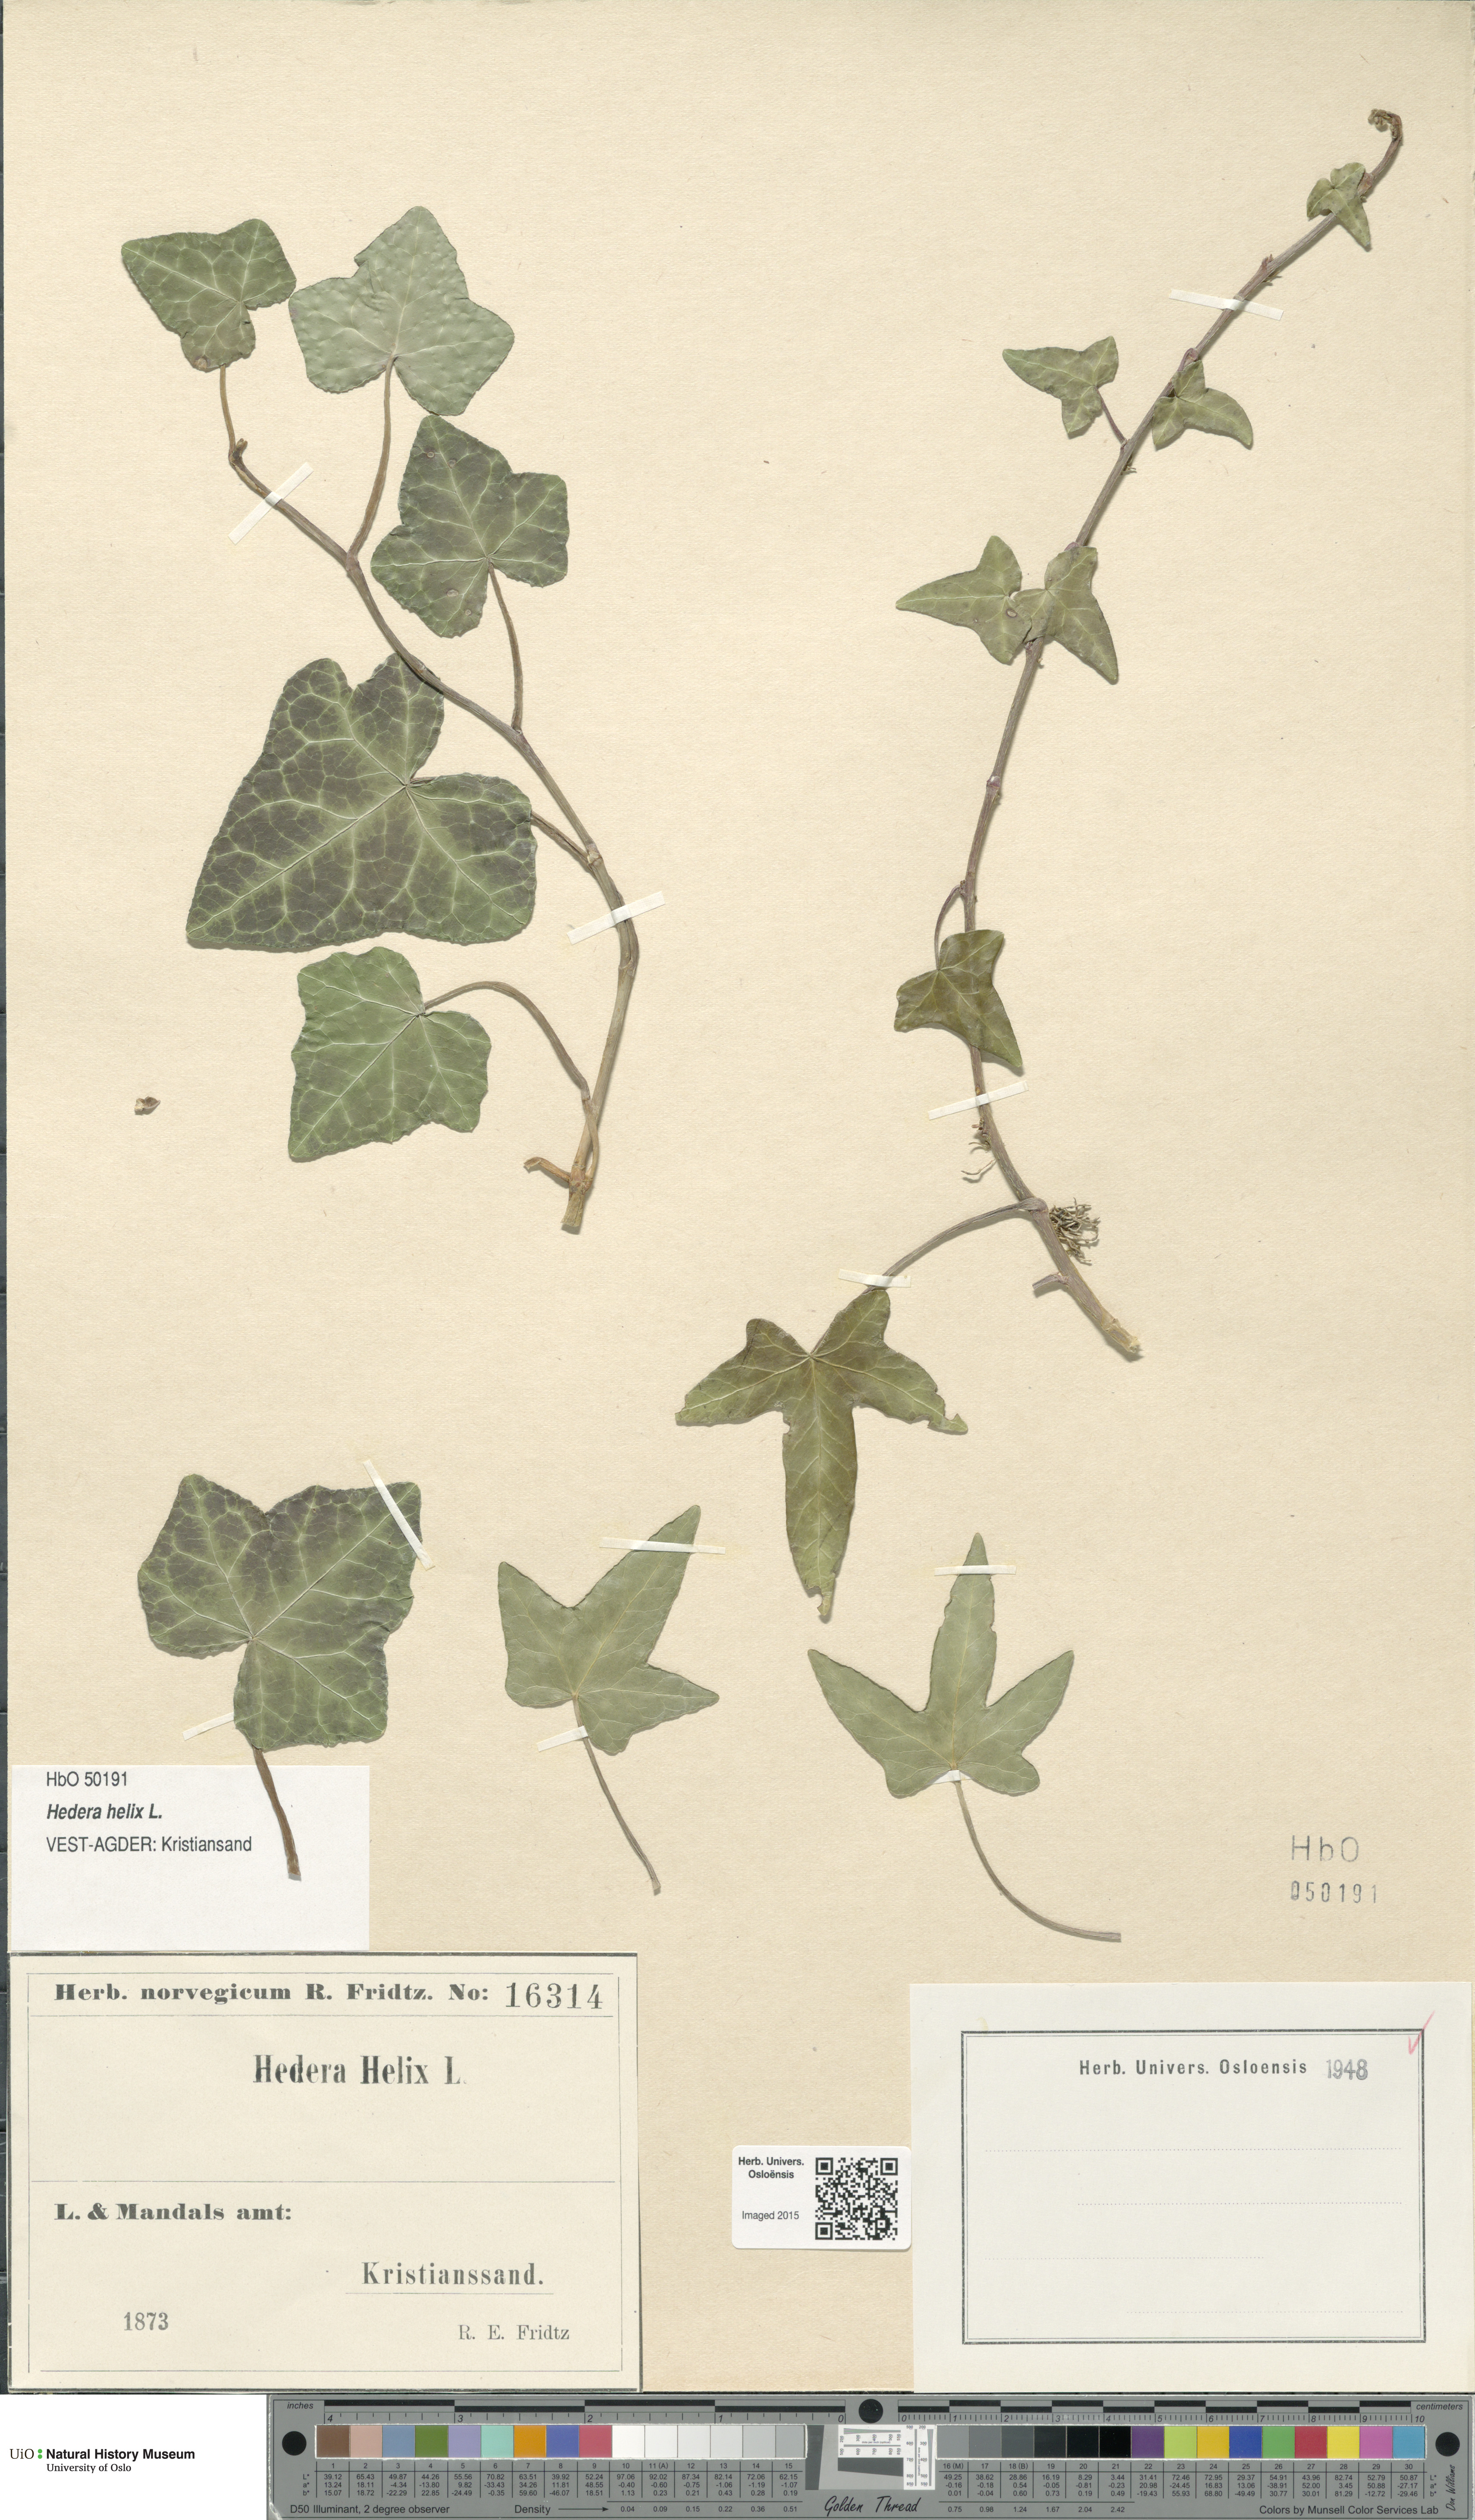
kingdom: Plantae
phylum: Tracheophyta
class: Magnoliopsida
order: Apiales
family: Araliaceae
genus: Hedera
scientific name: Hedera helix
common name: Ivy
